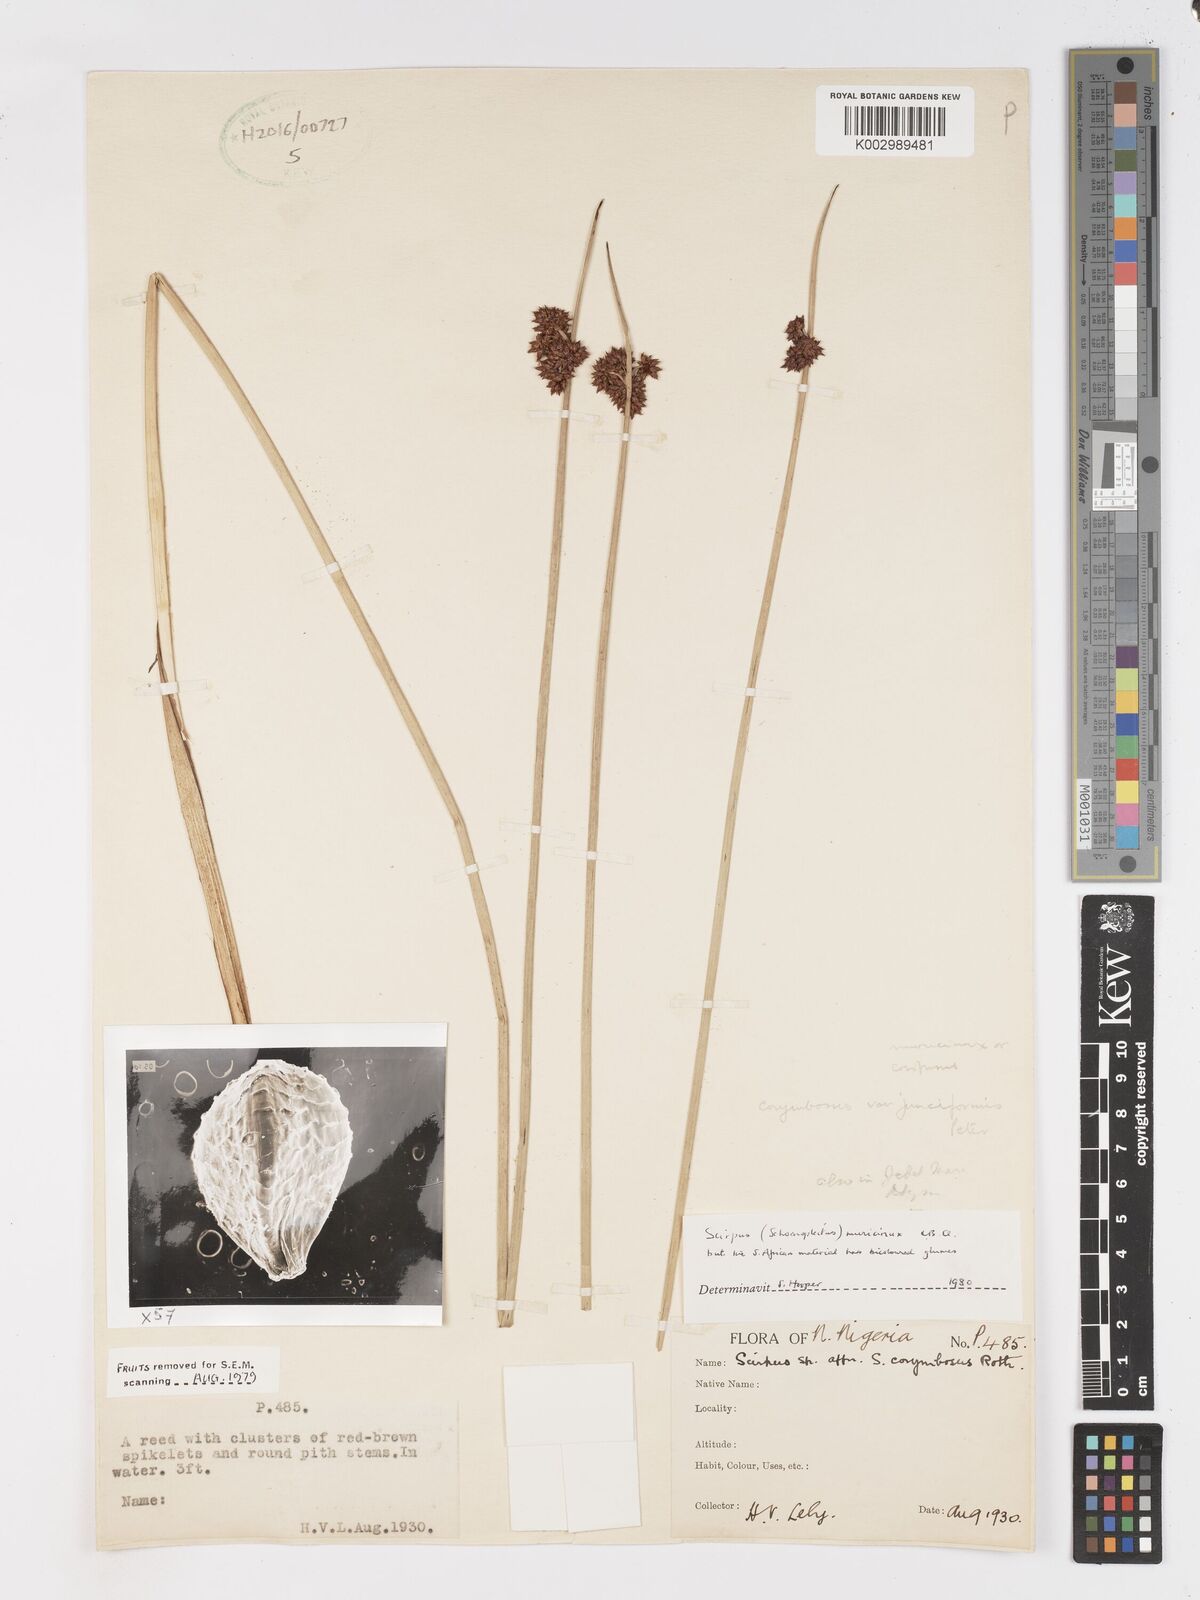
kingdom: Plantae
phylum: Tracheophyta
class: Liliopsida
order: Poales
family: Cyperaceae
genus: Schoenoplectiella
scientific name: Schoenoplectiella muricinux
